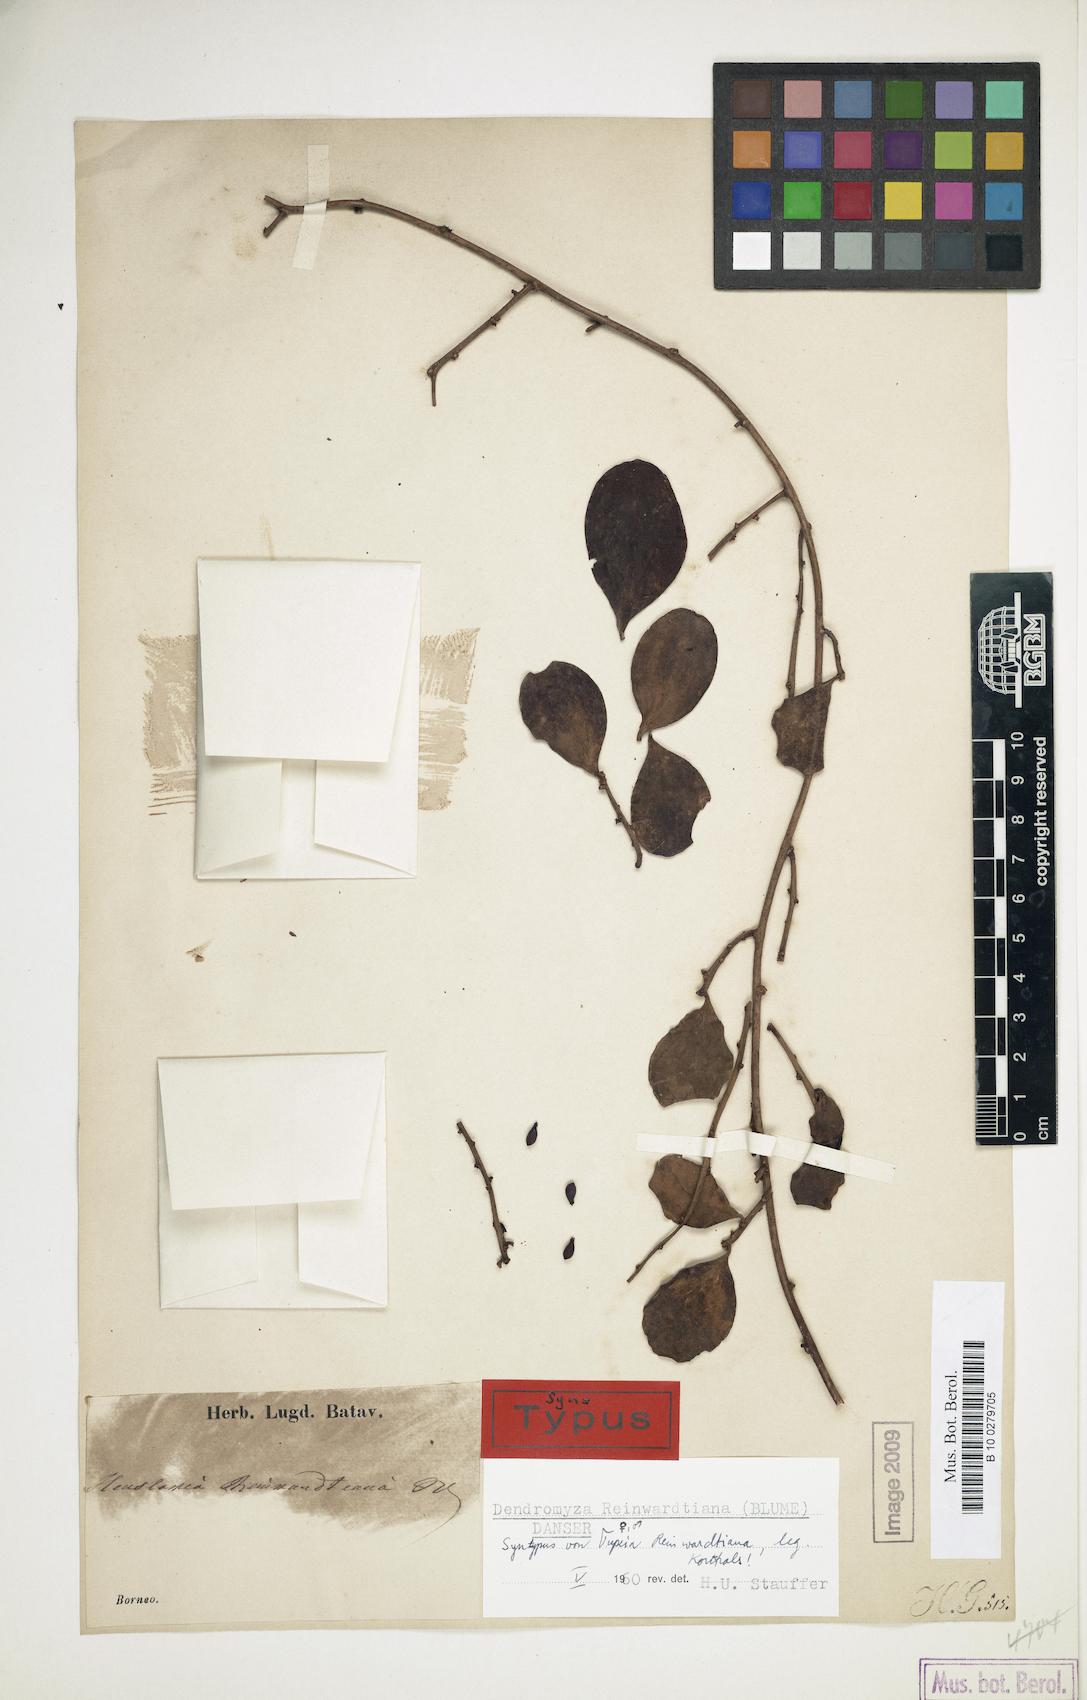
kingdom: Plantae
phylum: Tracheophyta
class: Magnoliopsida
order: Santalales
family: Amphorogynaceae
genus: Dendromyza
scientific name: Dendromyza reinwardtiana
